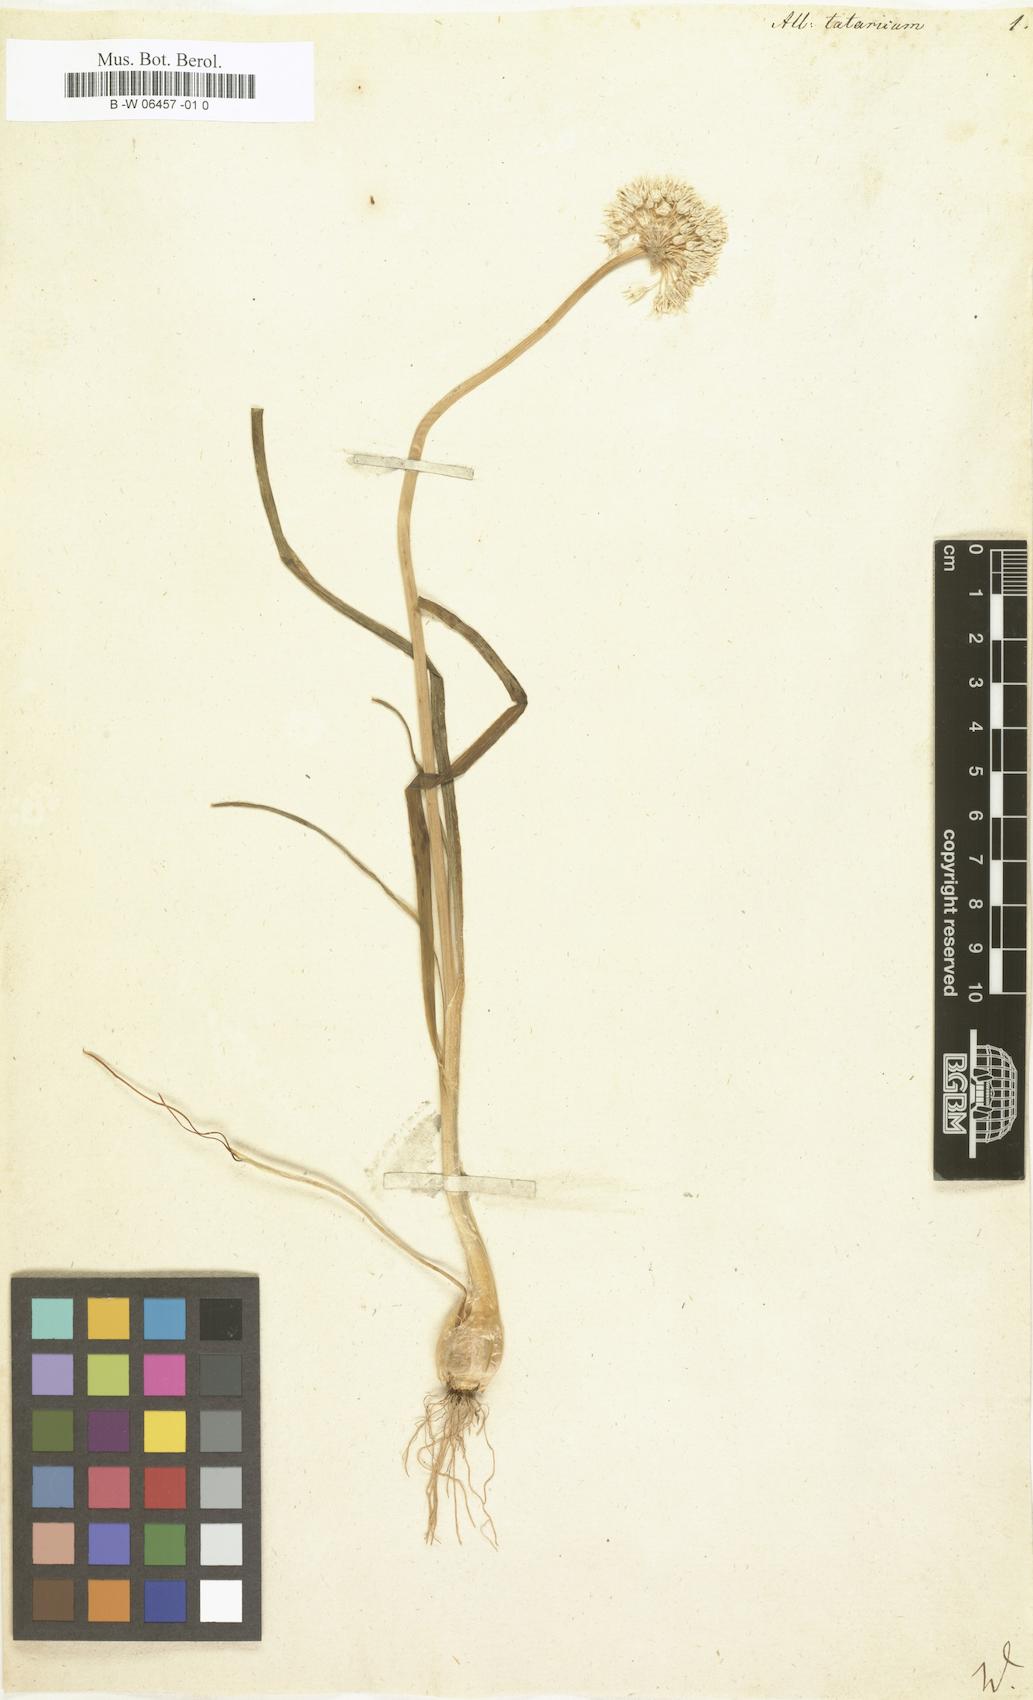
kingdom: Plantae
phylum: Tracheophyta
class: Liliopsida
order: Asparagales
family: Amaryllidaceae
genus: Allium
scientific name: Allium
